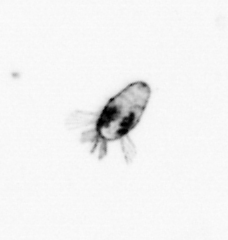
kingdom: Animalia
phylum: Arthropoda
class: Copepoda
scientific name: Copepoda
